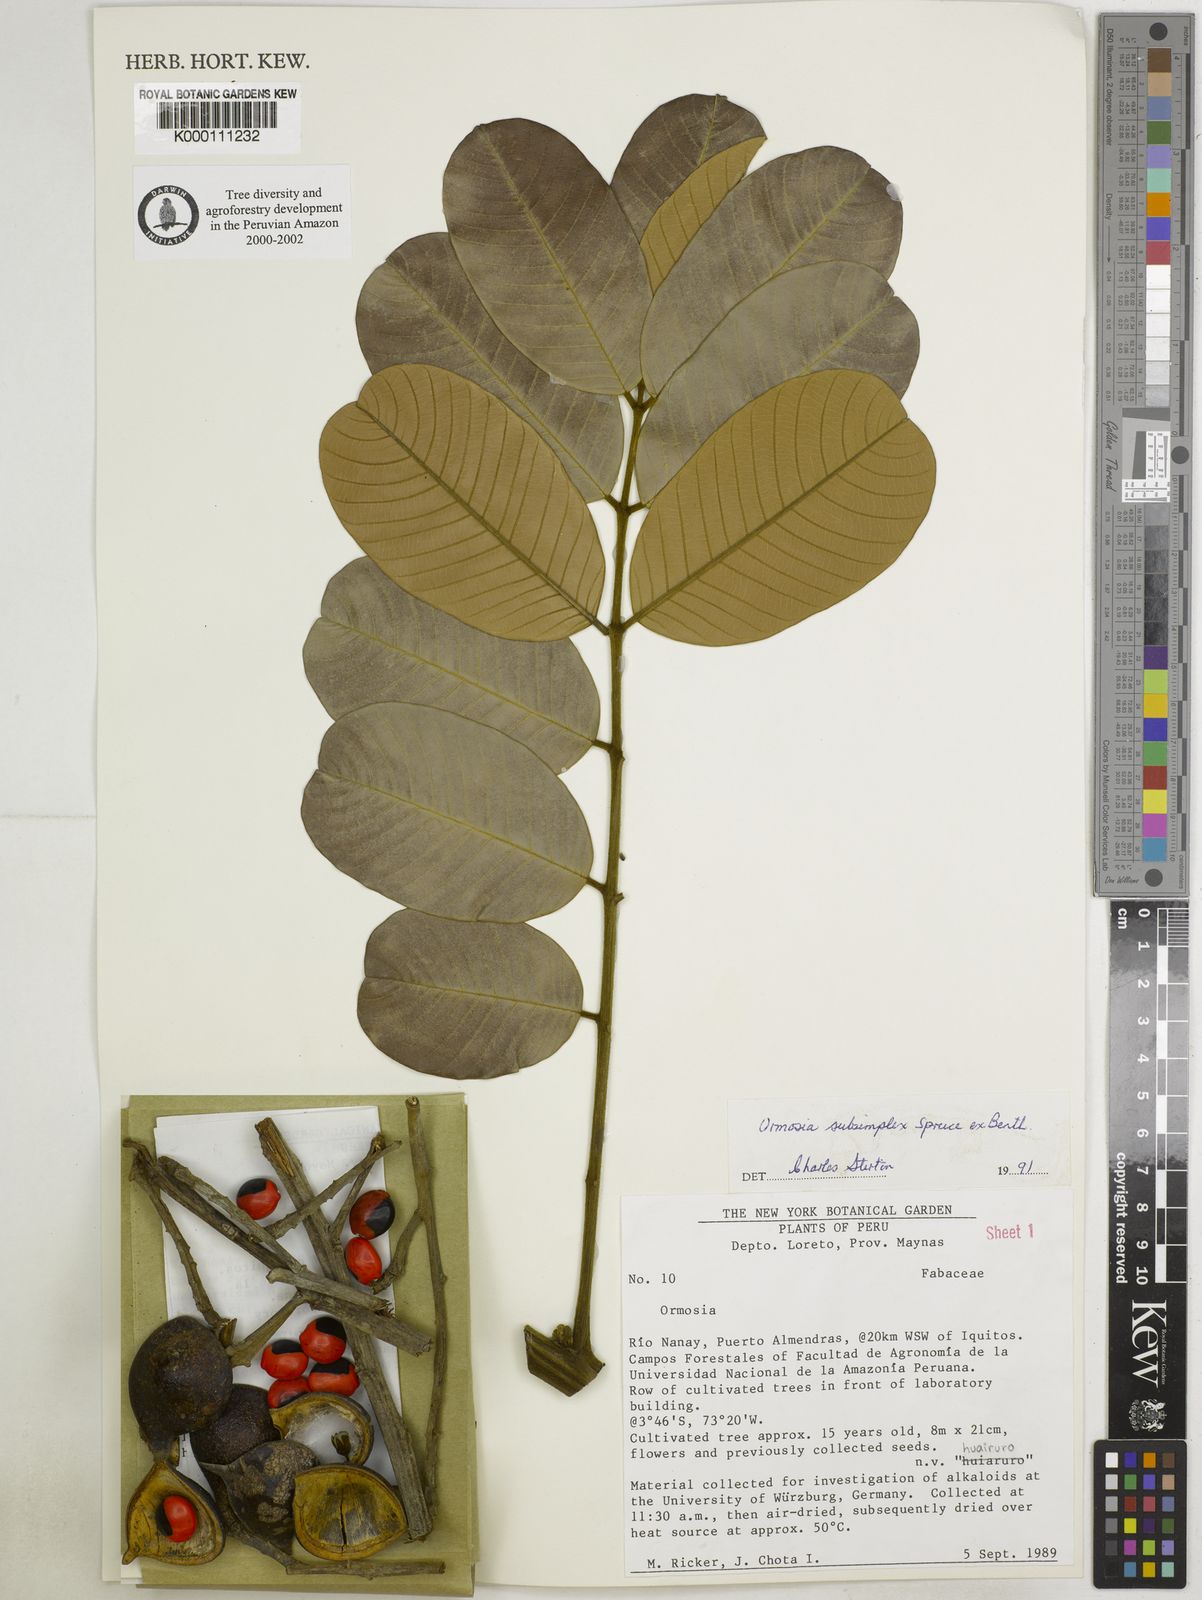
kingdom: Plantae
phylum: Tracheophyta
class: Magnoliopsida
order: Fabales
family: Fabaceae
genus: Ormosia
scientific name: Ormosia subsimplex
